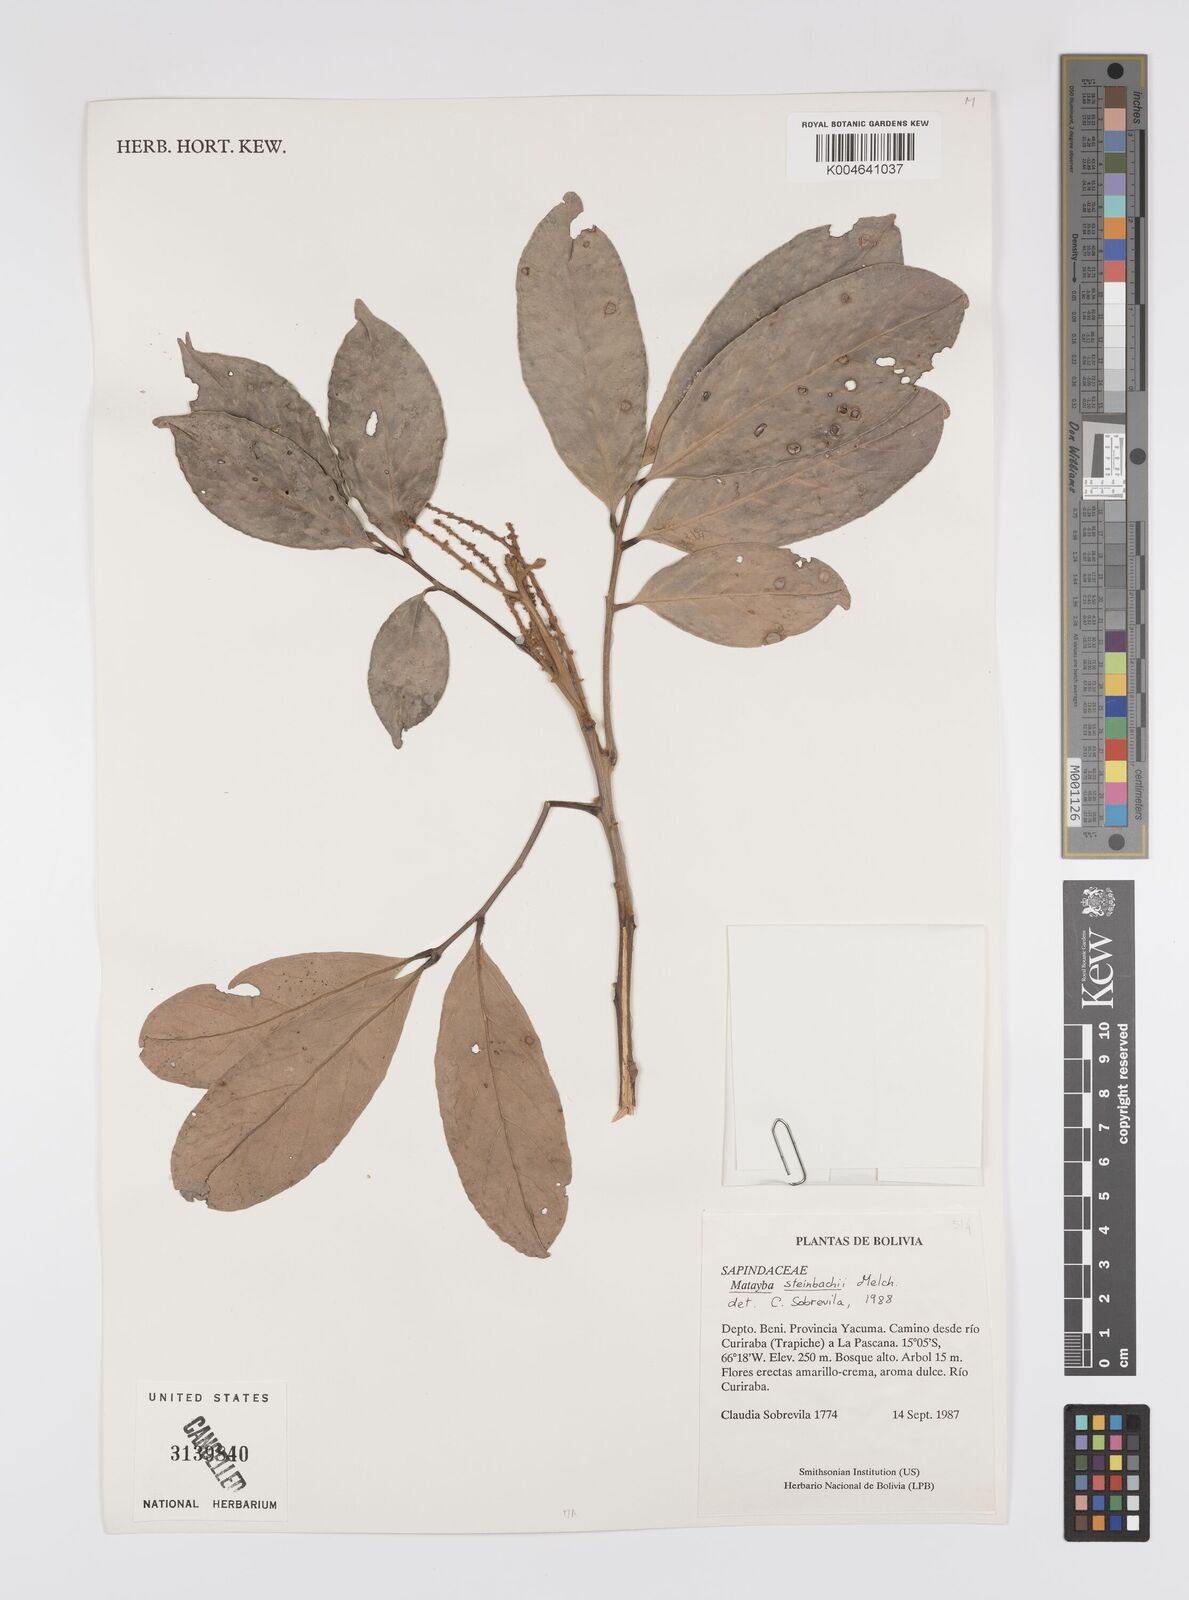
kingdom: Plantae
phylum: Tracheophyta
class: Magnoliopsida
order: Sapindales
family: Sapindaceae
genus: Matayba
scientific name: Matayba guianensis
